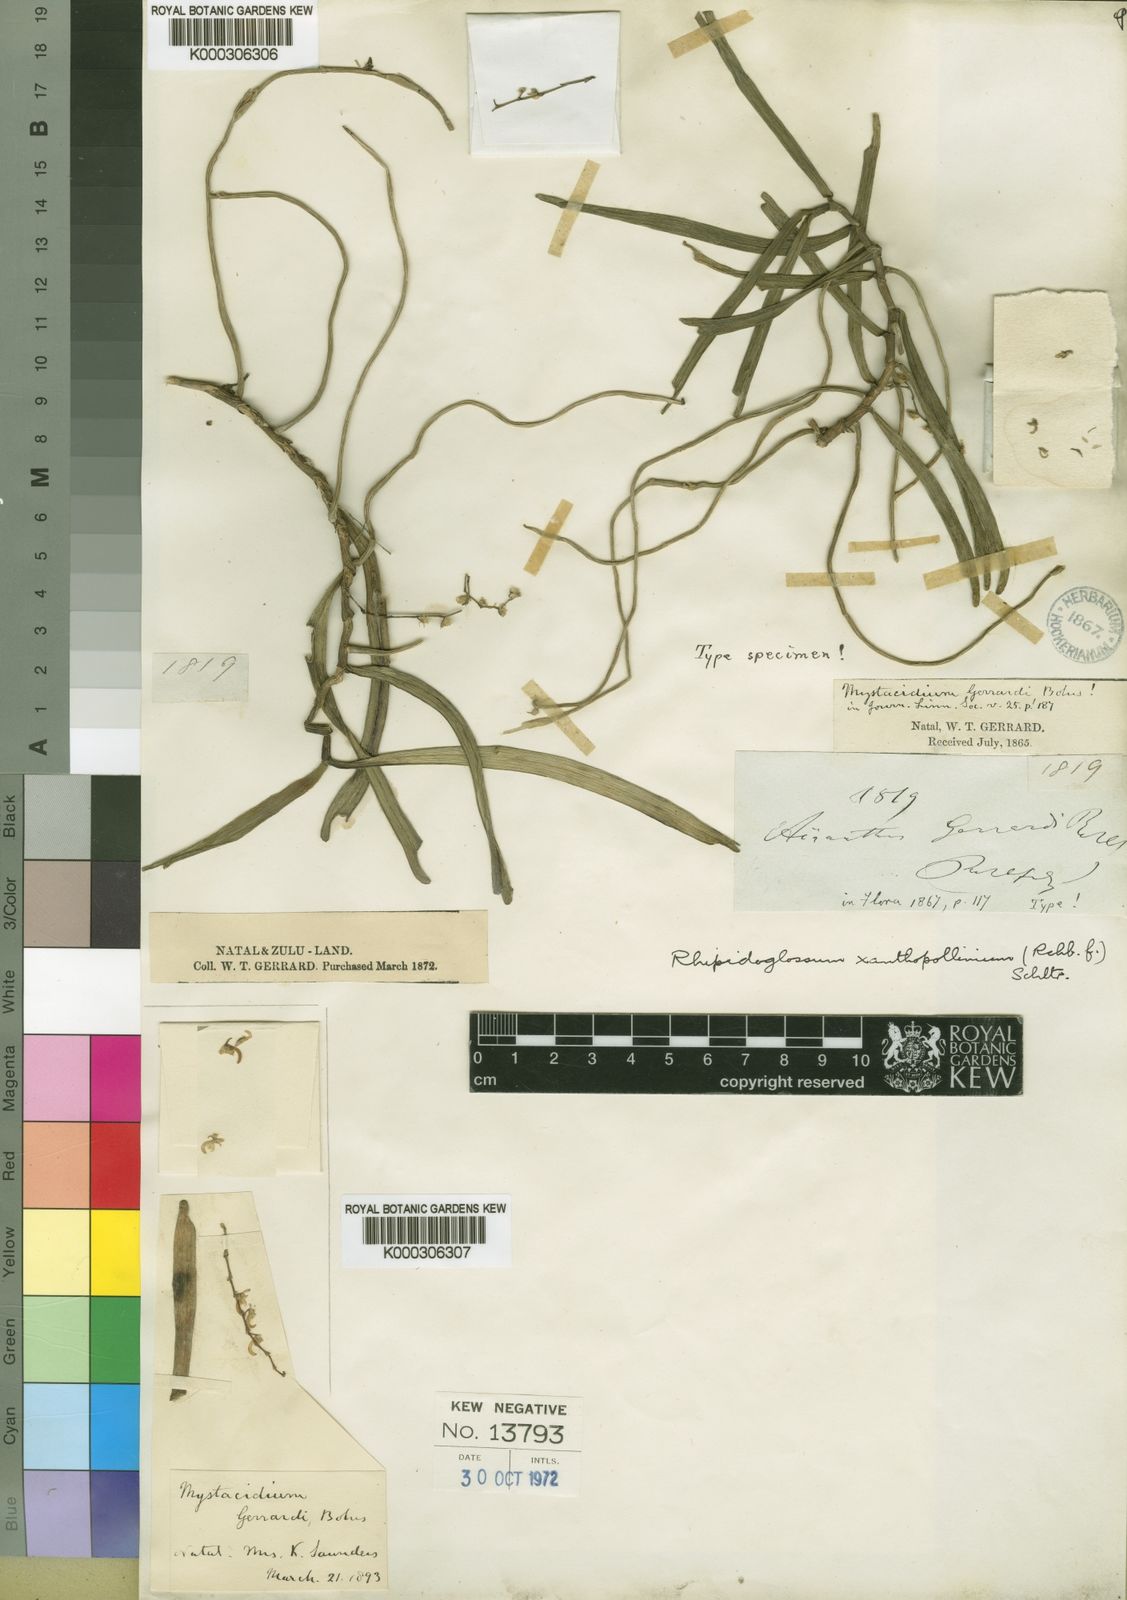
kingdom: Plantae
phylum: Tracheophyta
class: Liliopsida
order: Asparagales
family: Orchidaceae
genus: Rhipidoglossum
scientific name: Rhipidoglossum xanthopollinium
